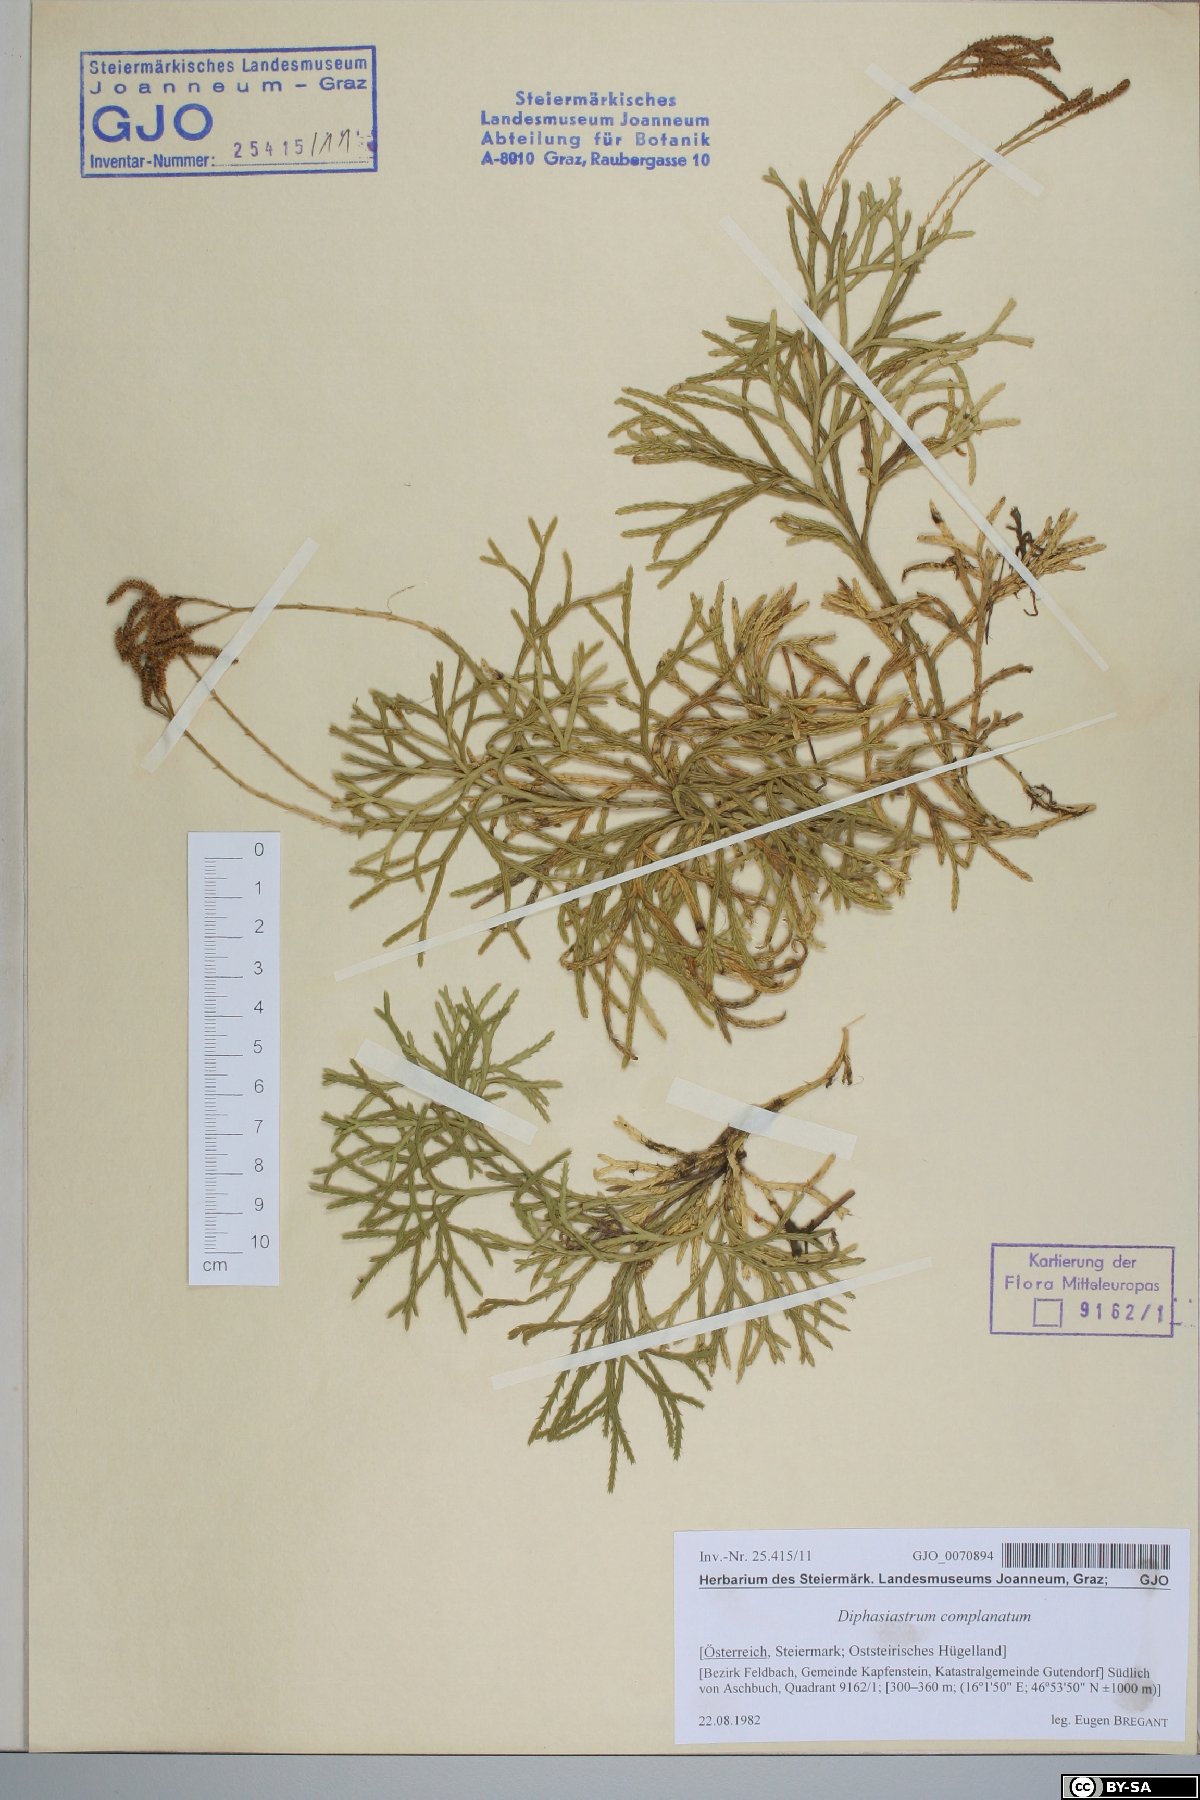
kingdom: Plantae
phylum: Tracheophyta
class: Lycopodiopsida
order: Lycopodiales
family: Lycopodiaceae
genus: Diphasiastrum
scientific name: Diphasiastrum complanatum
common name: Northern running-pine
